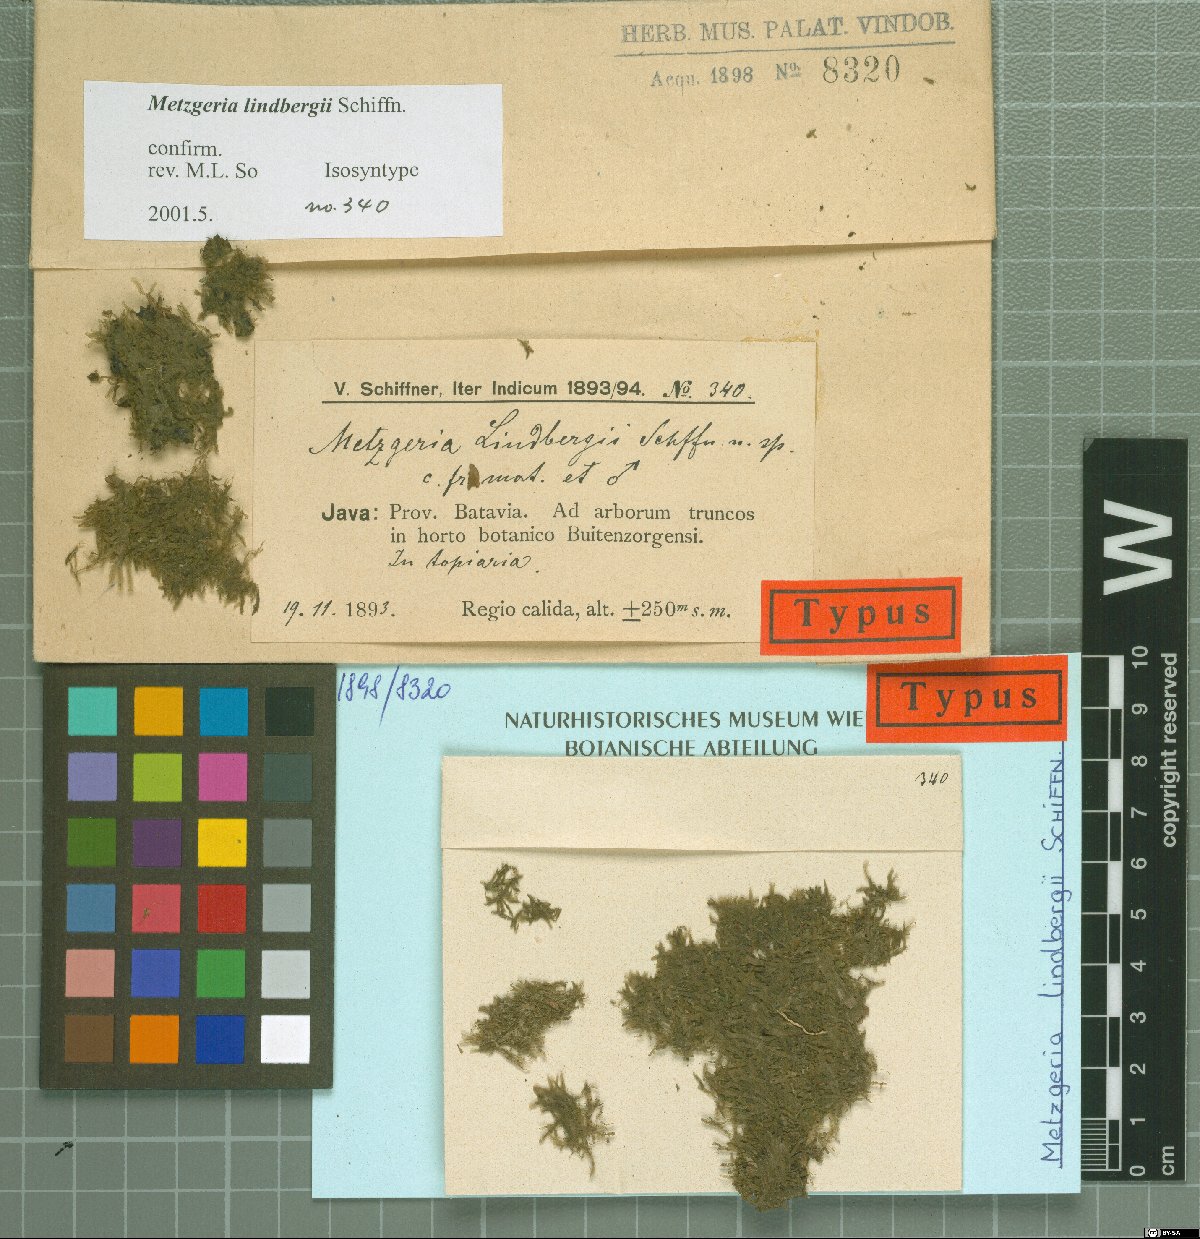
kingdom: Plantae
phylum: Marchantiophyta
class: Jungermanniopsida
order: Metzgeriales
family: Metzgeriaceae
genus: Metzgeria
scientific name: Metzgeria lindbergii
